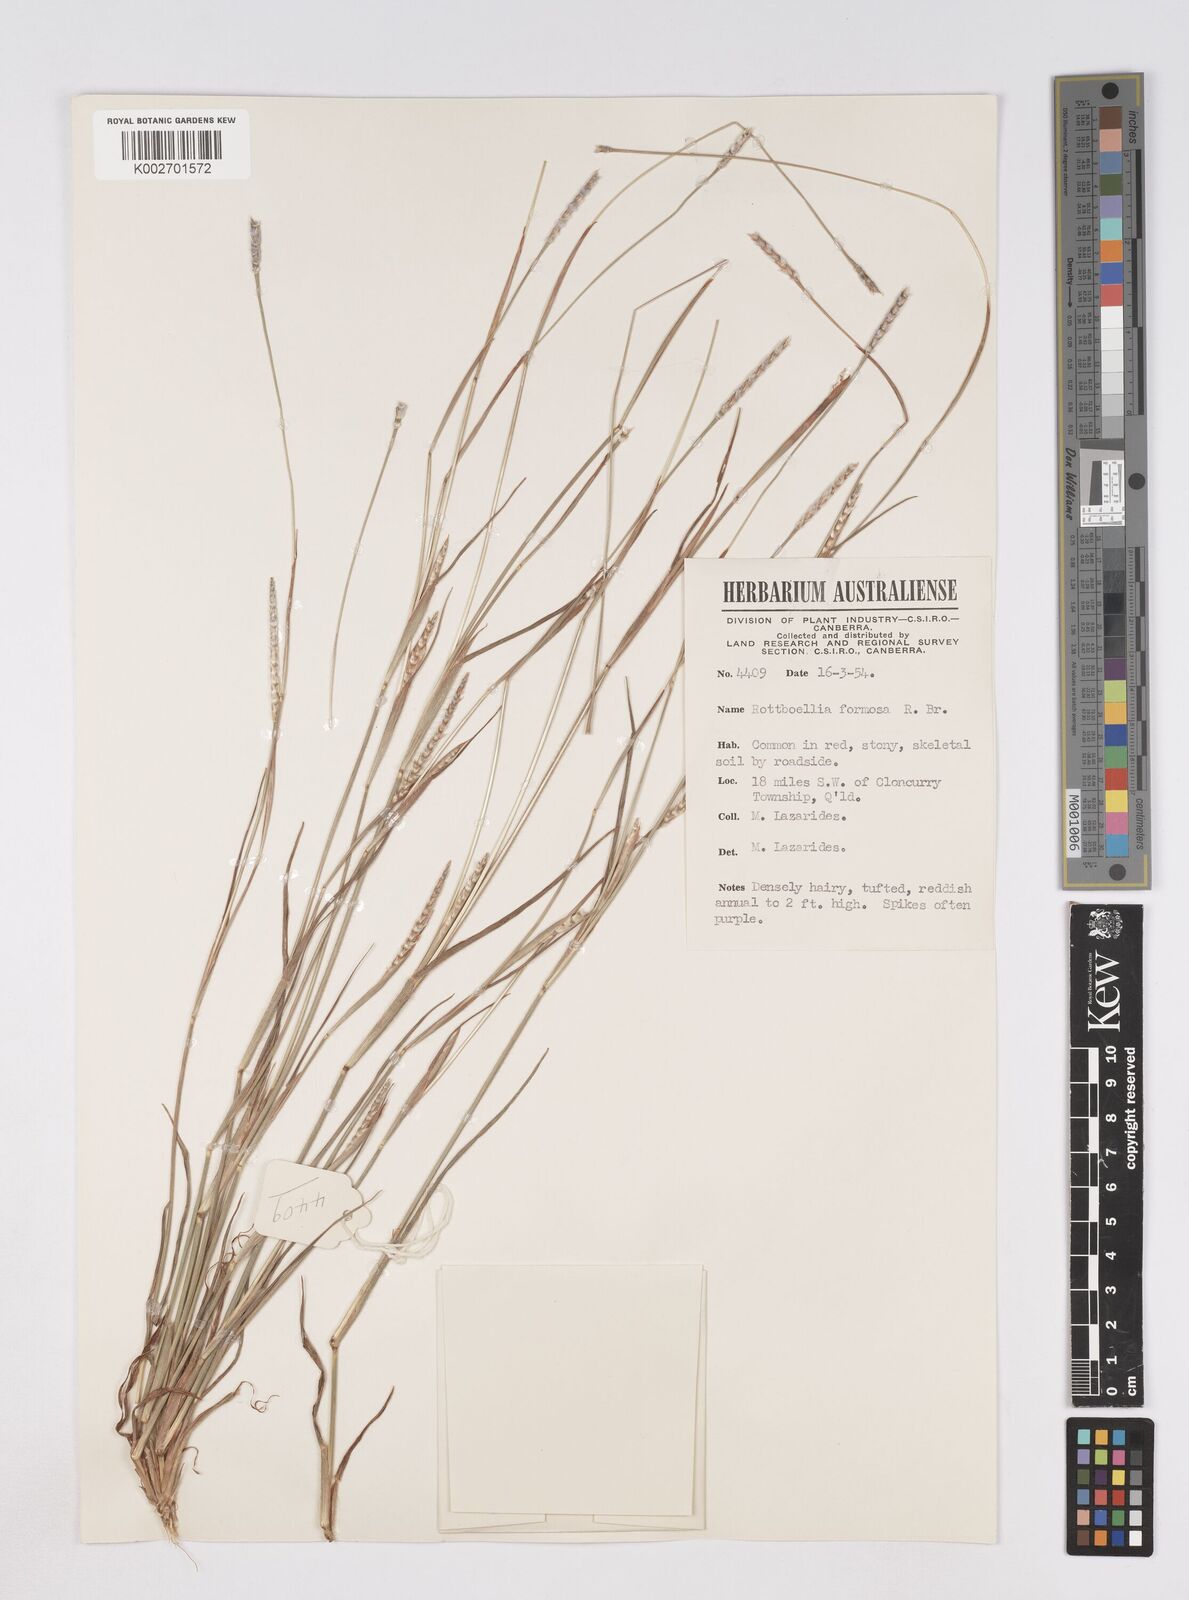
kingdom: Plantae
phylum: Tracheophyta
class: Liliopsida
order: Poales
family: Poaceae
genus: Heteropholis
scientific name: Heteropholis
